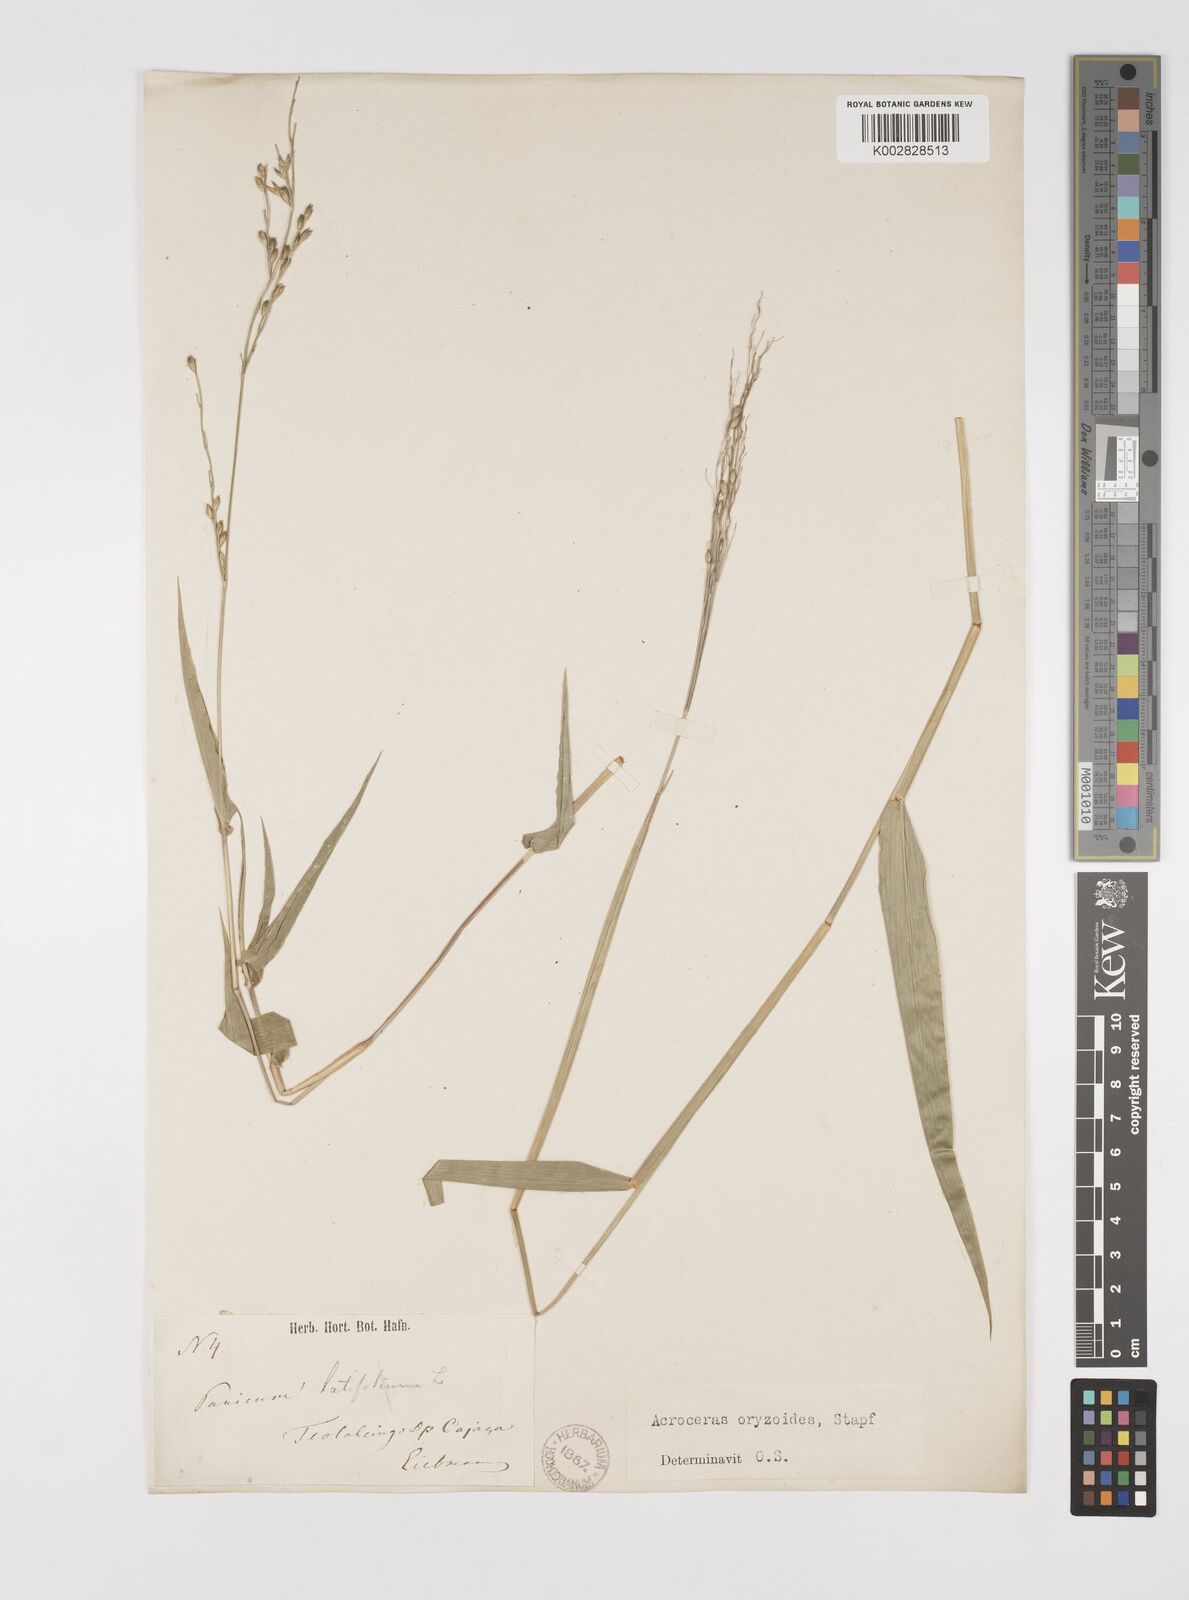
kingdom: Plantae
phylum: Tracheophyta
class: Liliopsida
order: Poales
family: Poaceae
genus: Acroceras
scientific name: Acroceras zizanioides
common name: Oat grass
